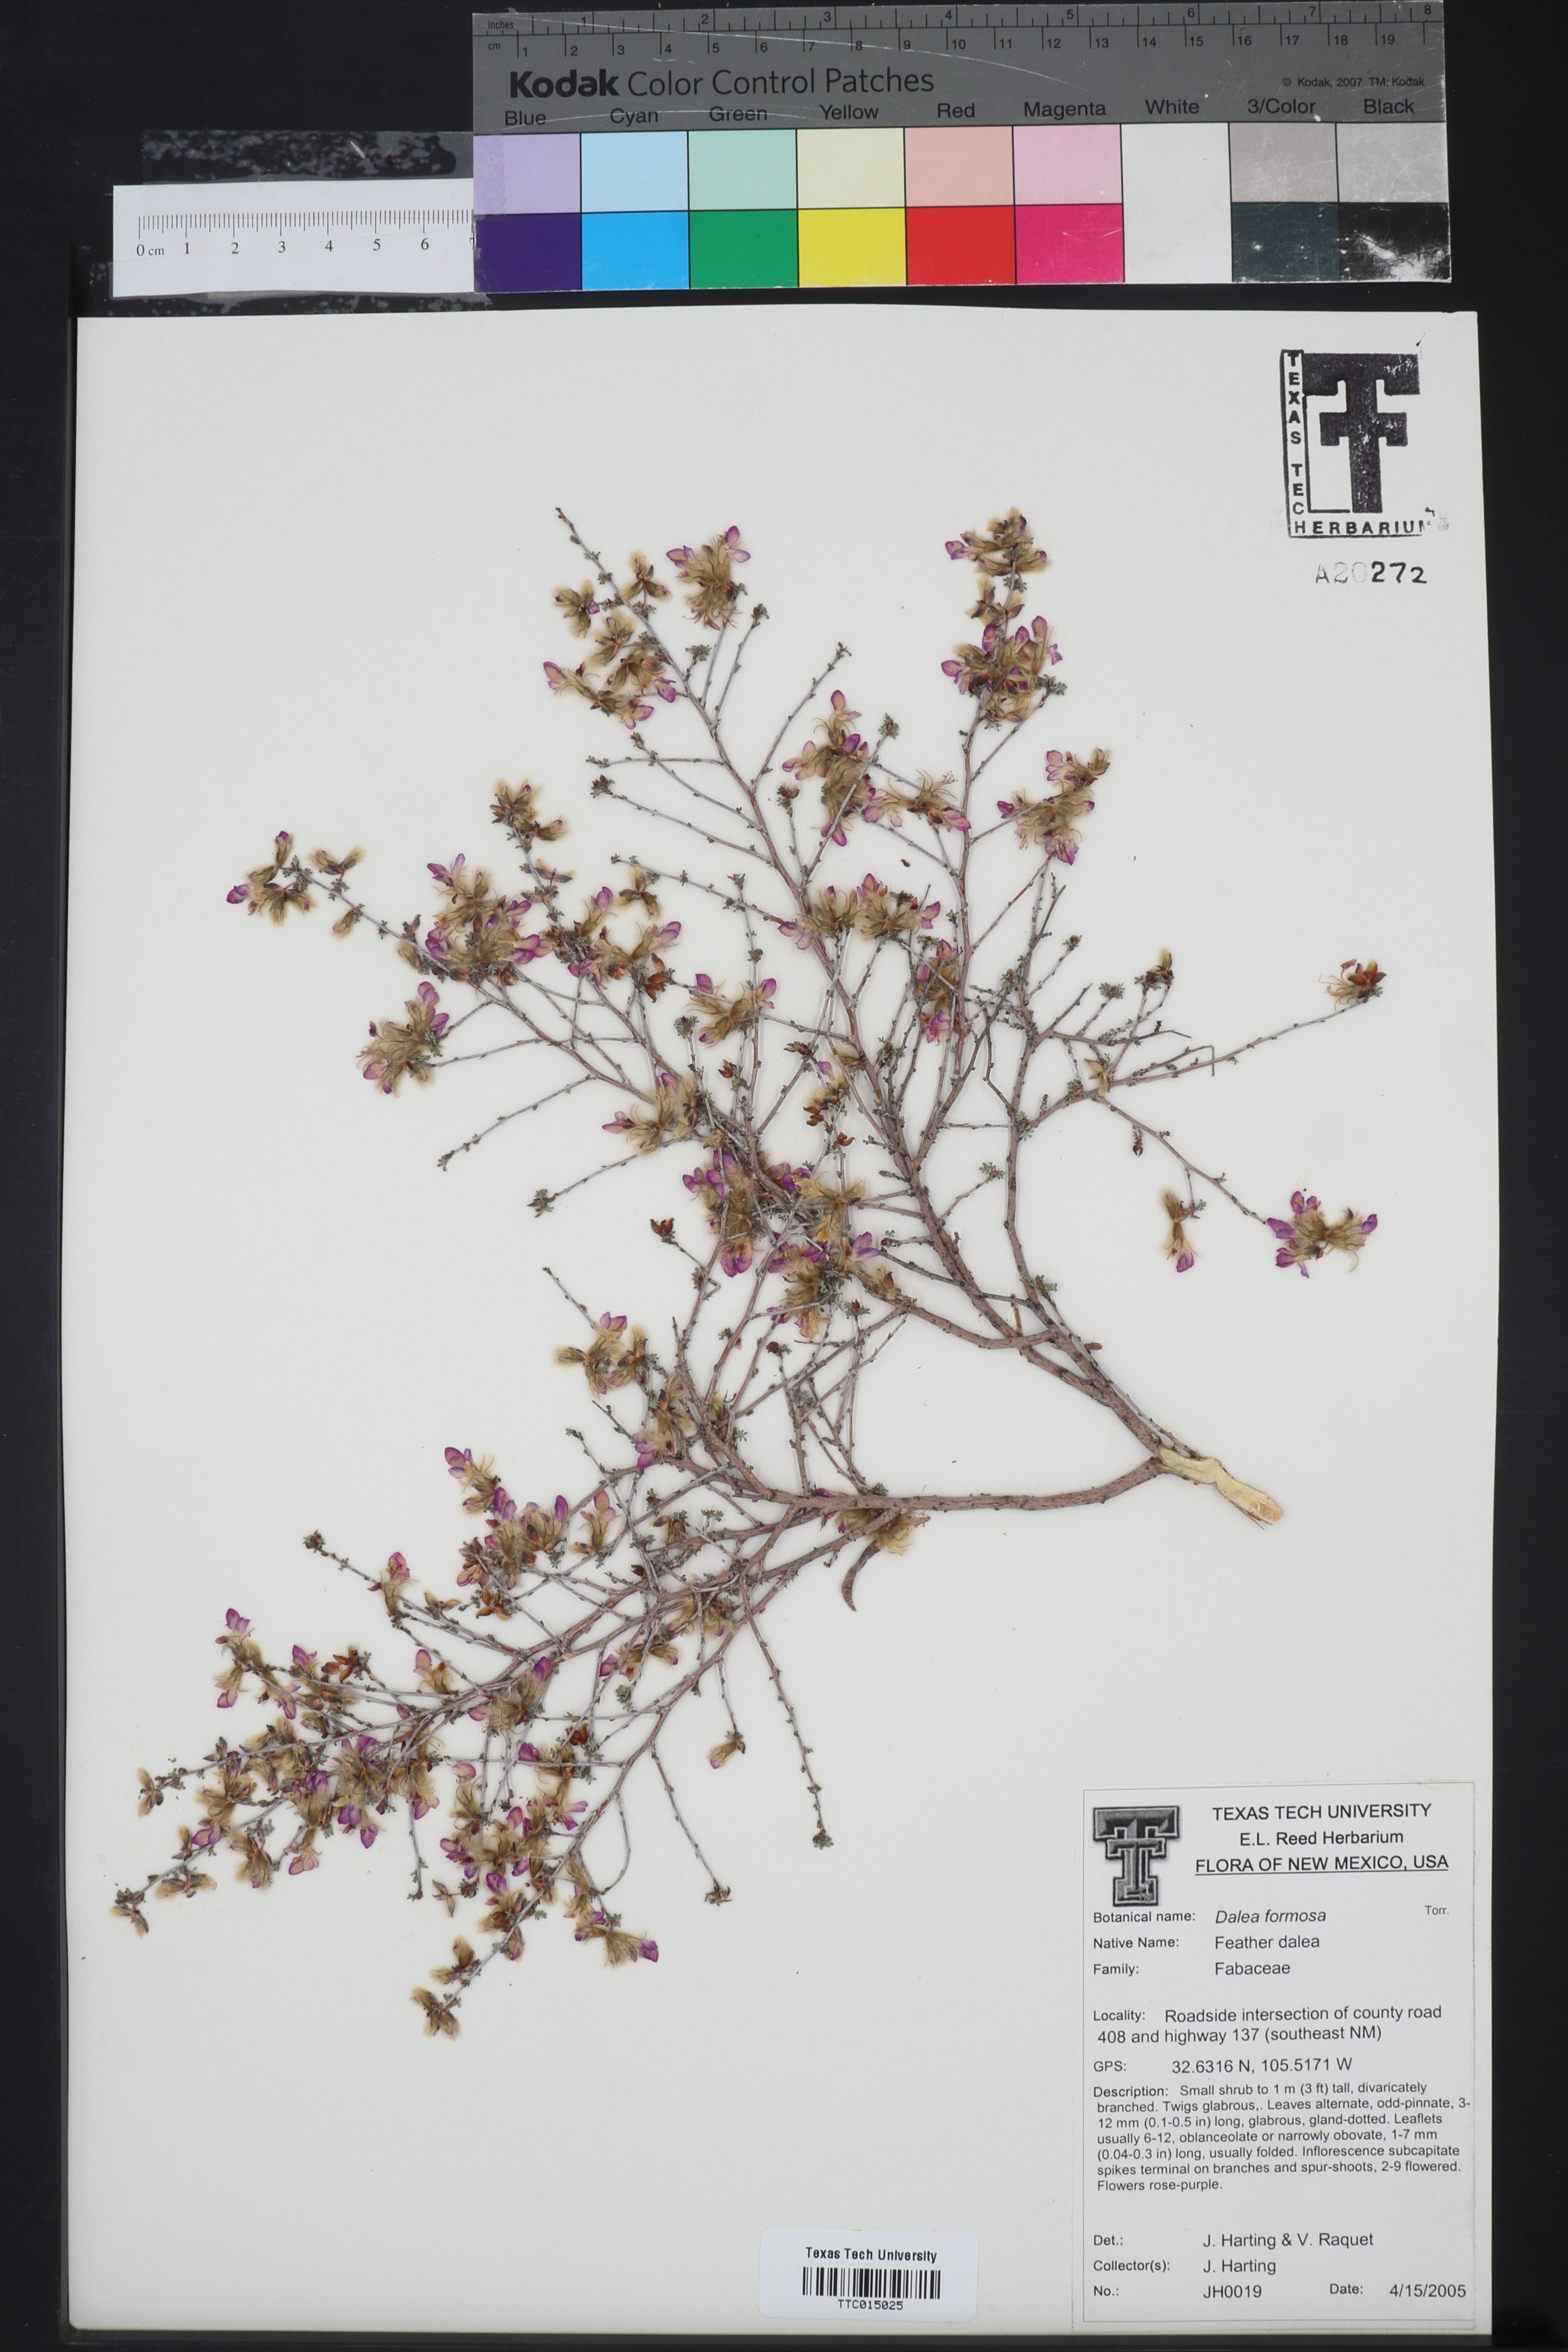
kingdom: Plantae
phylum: Tracheophyta
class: Magnoliopsida
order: Fabales
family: Fabaceae
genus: Dalea
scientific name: Dalea formosa
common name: Feather-plume dalea
